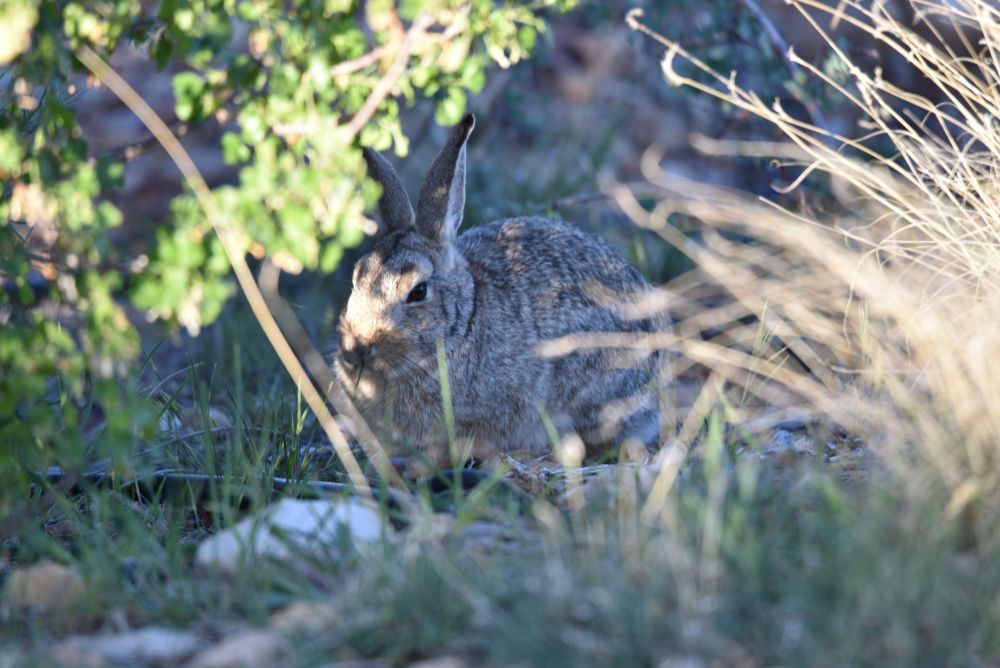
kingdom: Animalia
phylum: Chordata
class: Mammalia
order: Lagomorpha
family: Leporidae
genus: Sylvilagus
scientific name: Sylvilagus audubonii
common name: Desert cottontail
